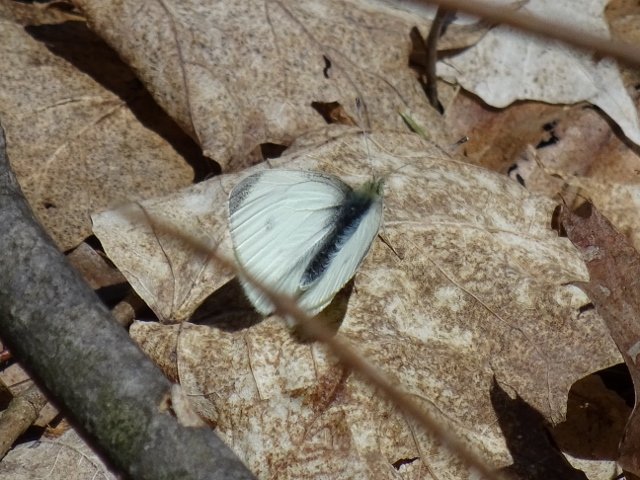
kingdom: Animalia
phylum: Arthropoda
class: Insecta
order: Lepidoptera
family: Pieridae
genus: Pieris
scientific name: Pieris rapae
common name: Cabbage White
